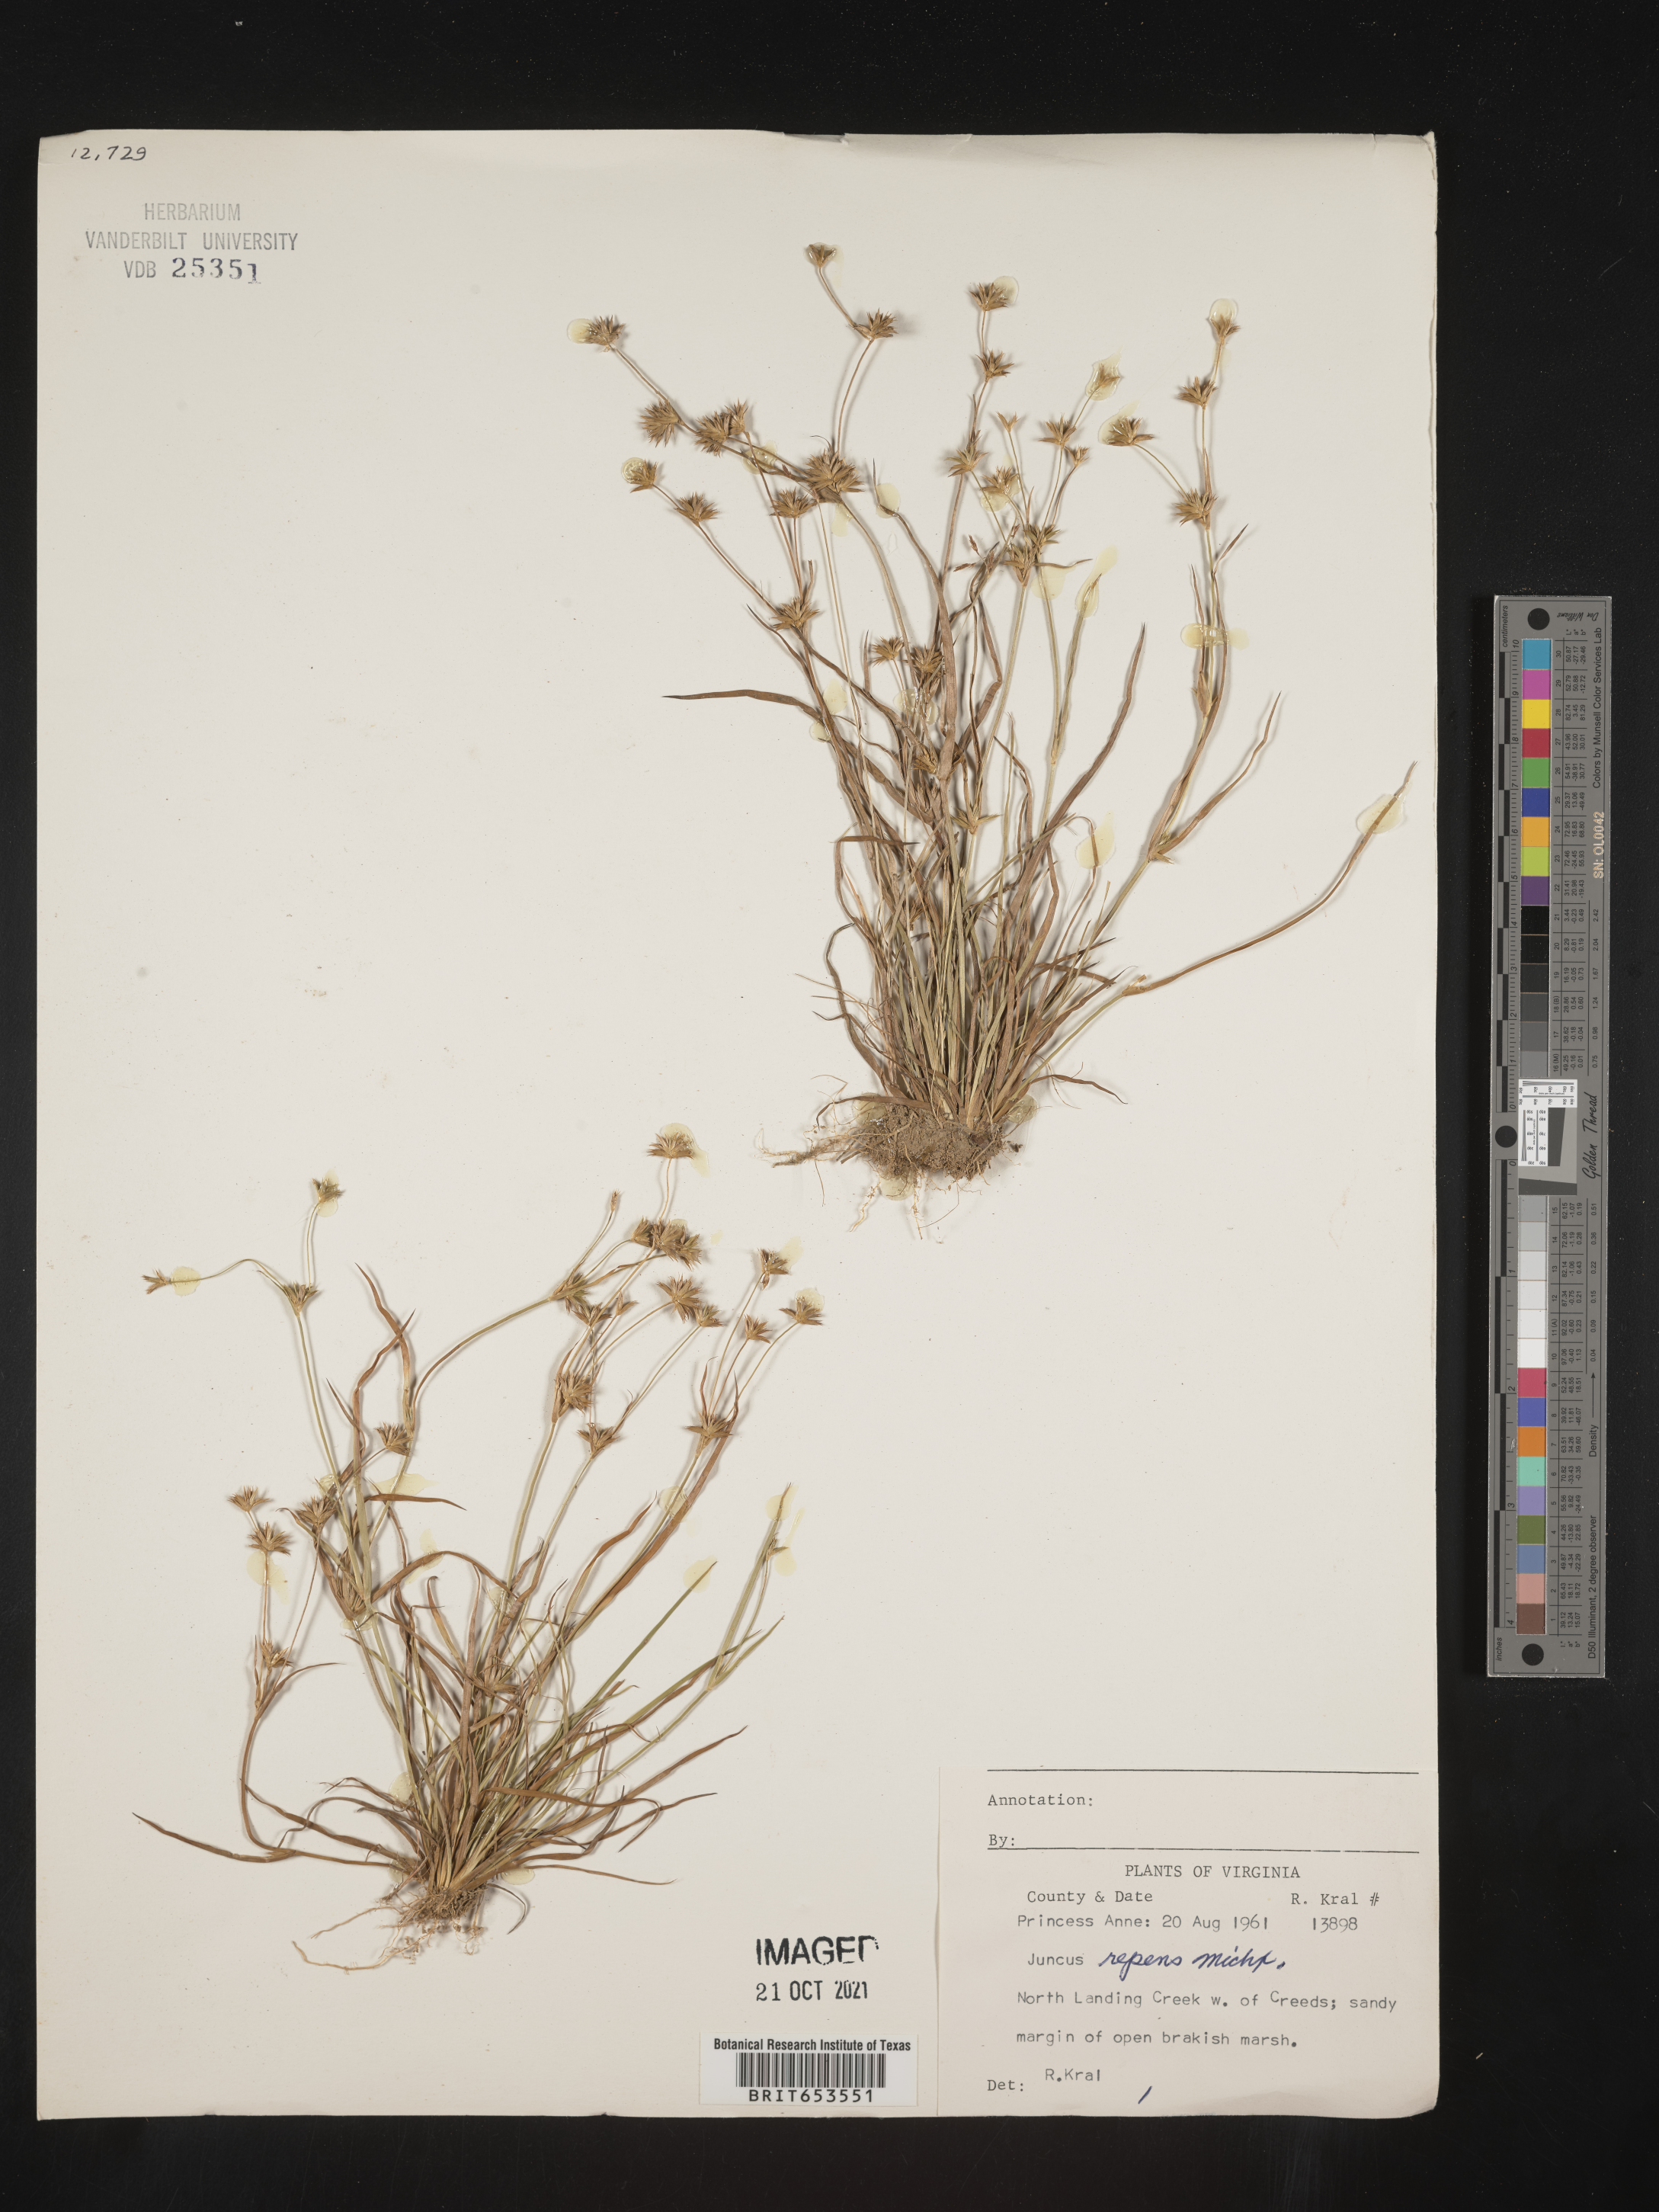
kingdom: Plantae
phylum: Tracheophyta
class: Liliopsida
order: Poales
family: Juncaceae
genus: Juncus
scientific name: Juncus repens
